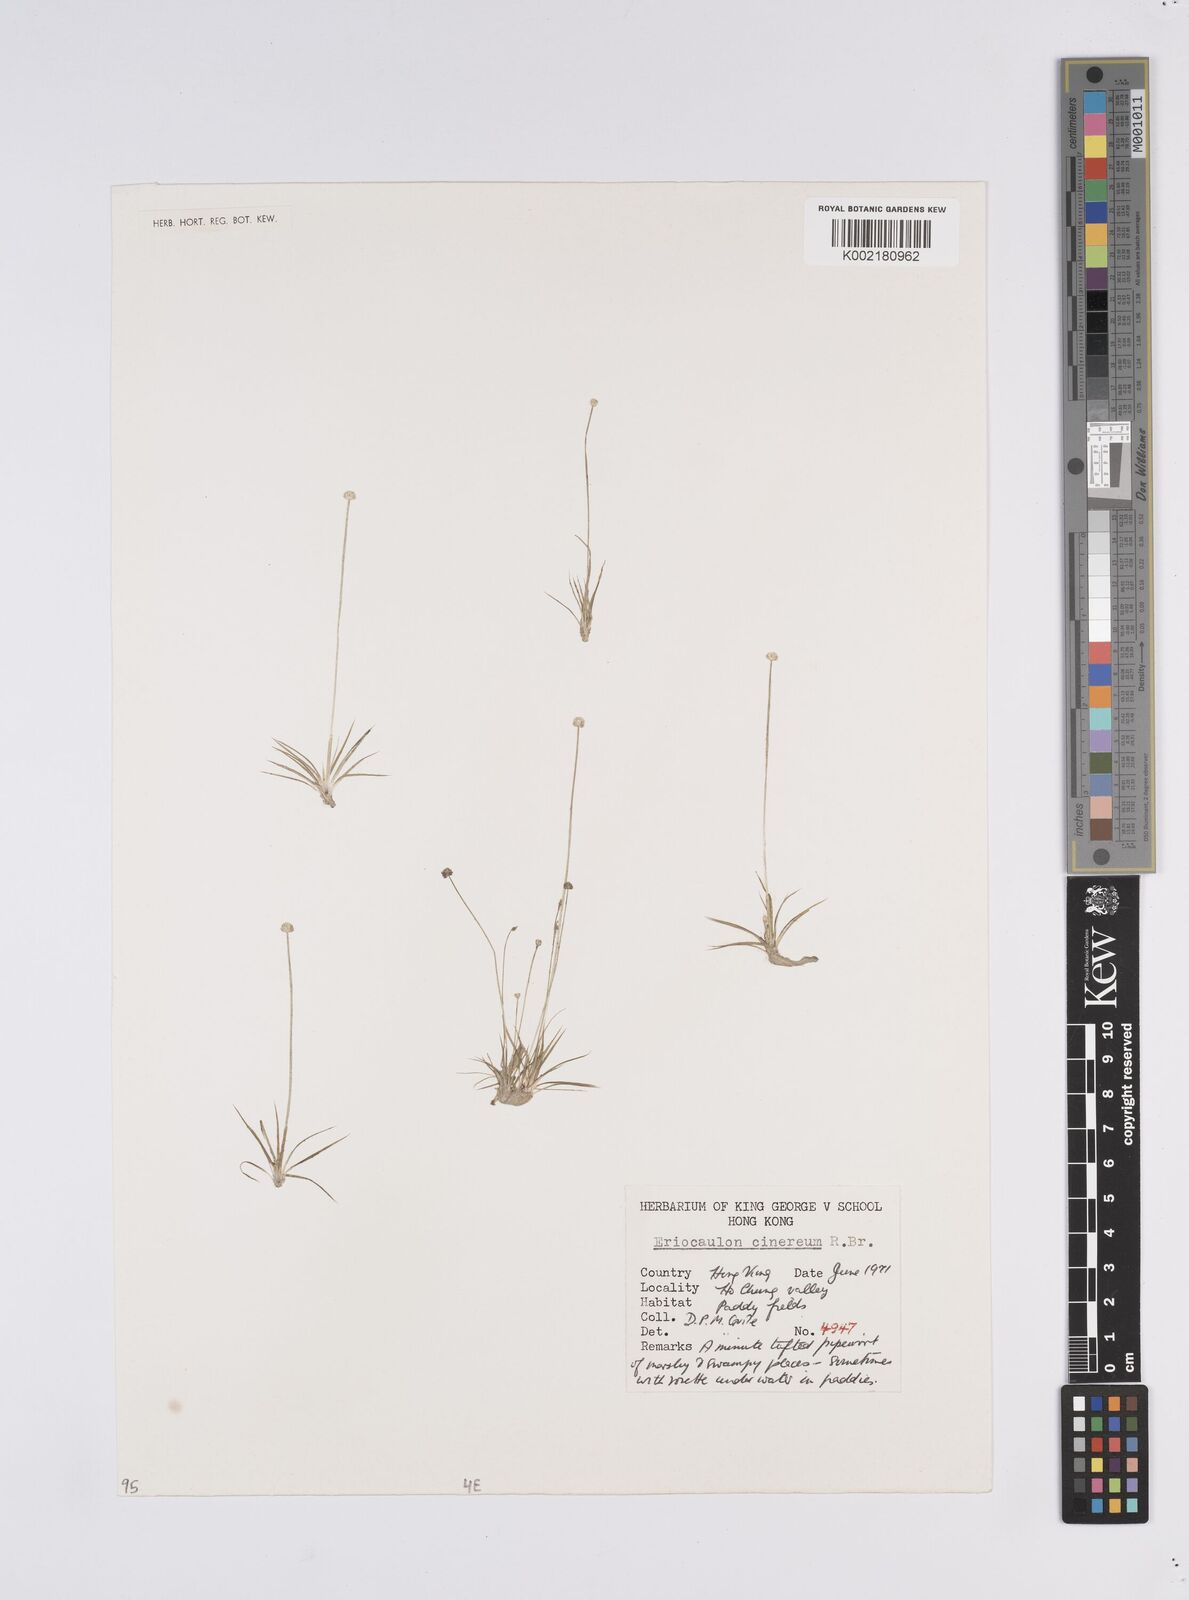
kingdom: Plantae
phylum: Tracheophyta
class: Liliopsida
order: Poales
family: Eriocaulaceae
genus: Eriocaulon
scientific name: Eriocaulon australe
